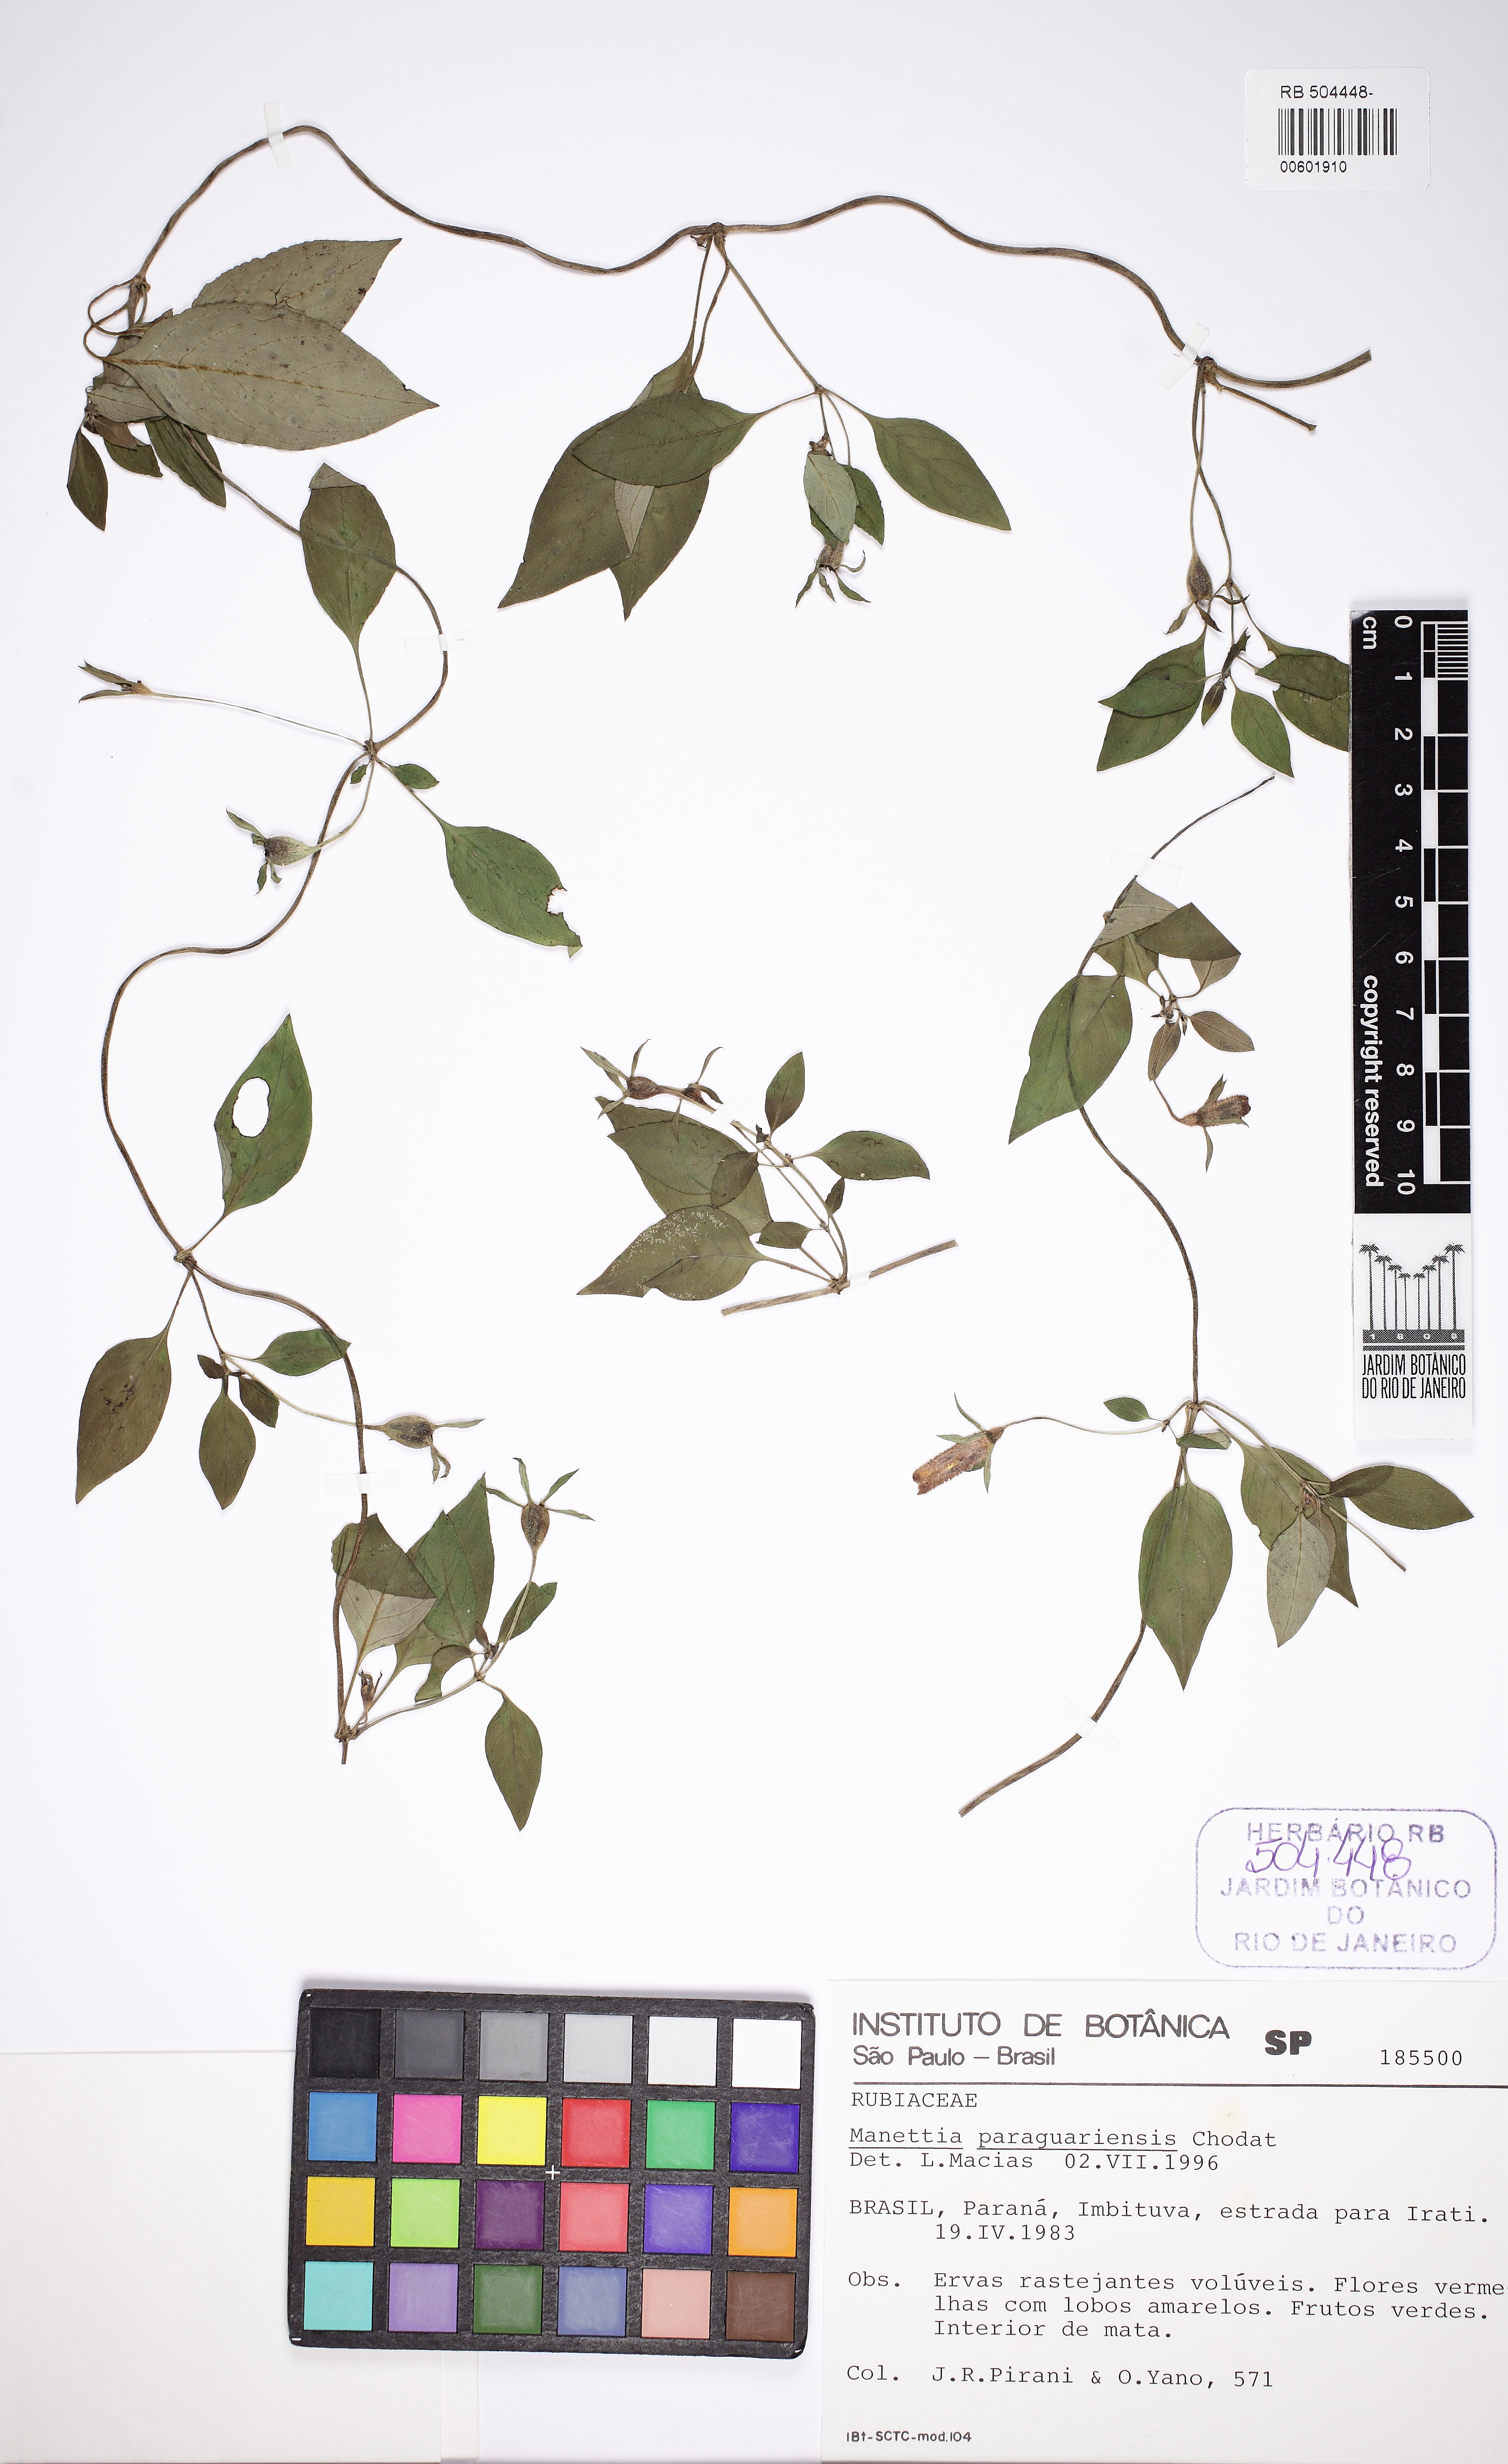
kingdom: Plantae
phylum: Tracheophyta
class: Magnoliopsida
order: Gentianales
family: Rubiaceae
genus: Manettia
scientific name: Manettia paraguariensis
